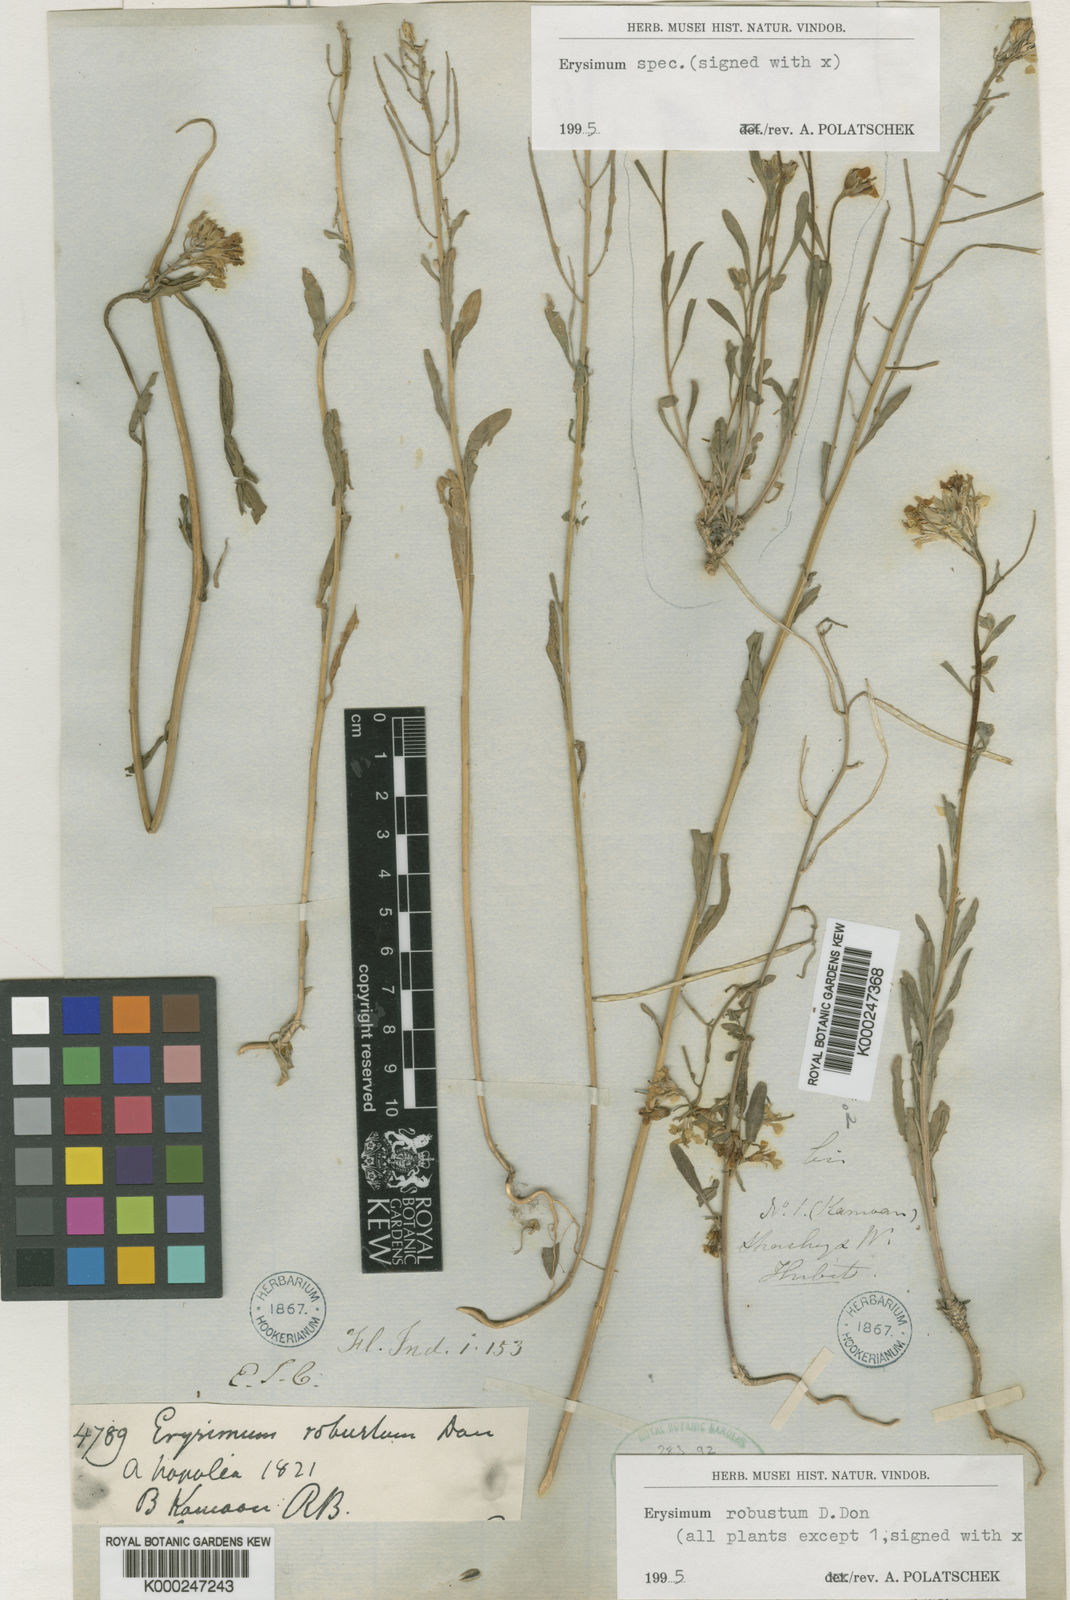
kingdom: Plantae
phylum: Tracheophyta
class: Magnoliopsida
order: Brassicales
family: Brassicaceae
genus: Erysimum
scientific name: Erysimum hieraciifolium
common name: European wallflower
